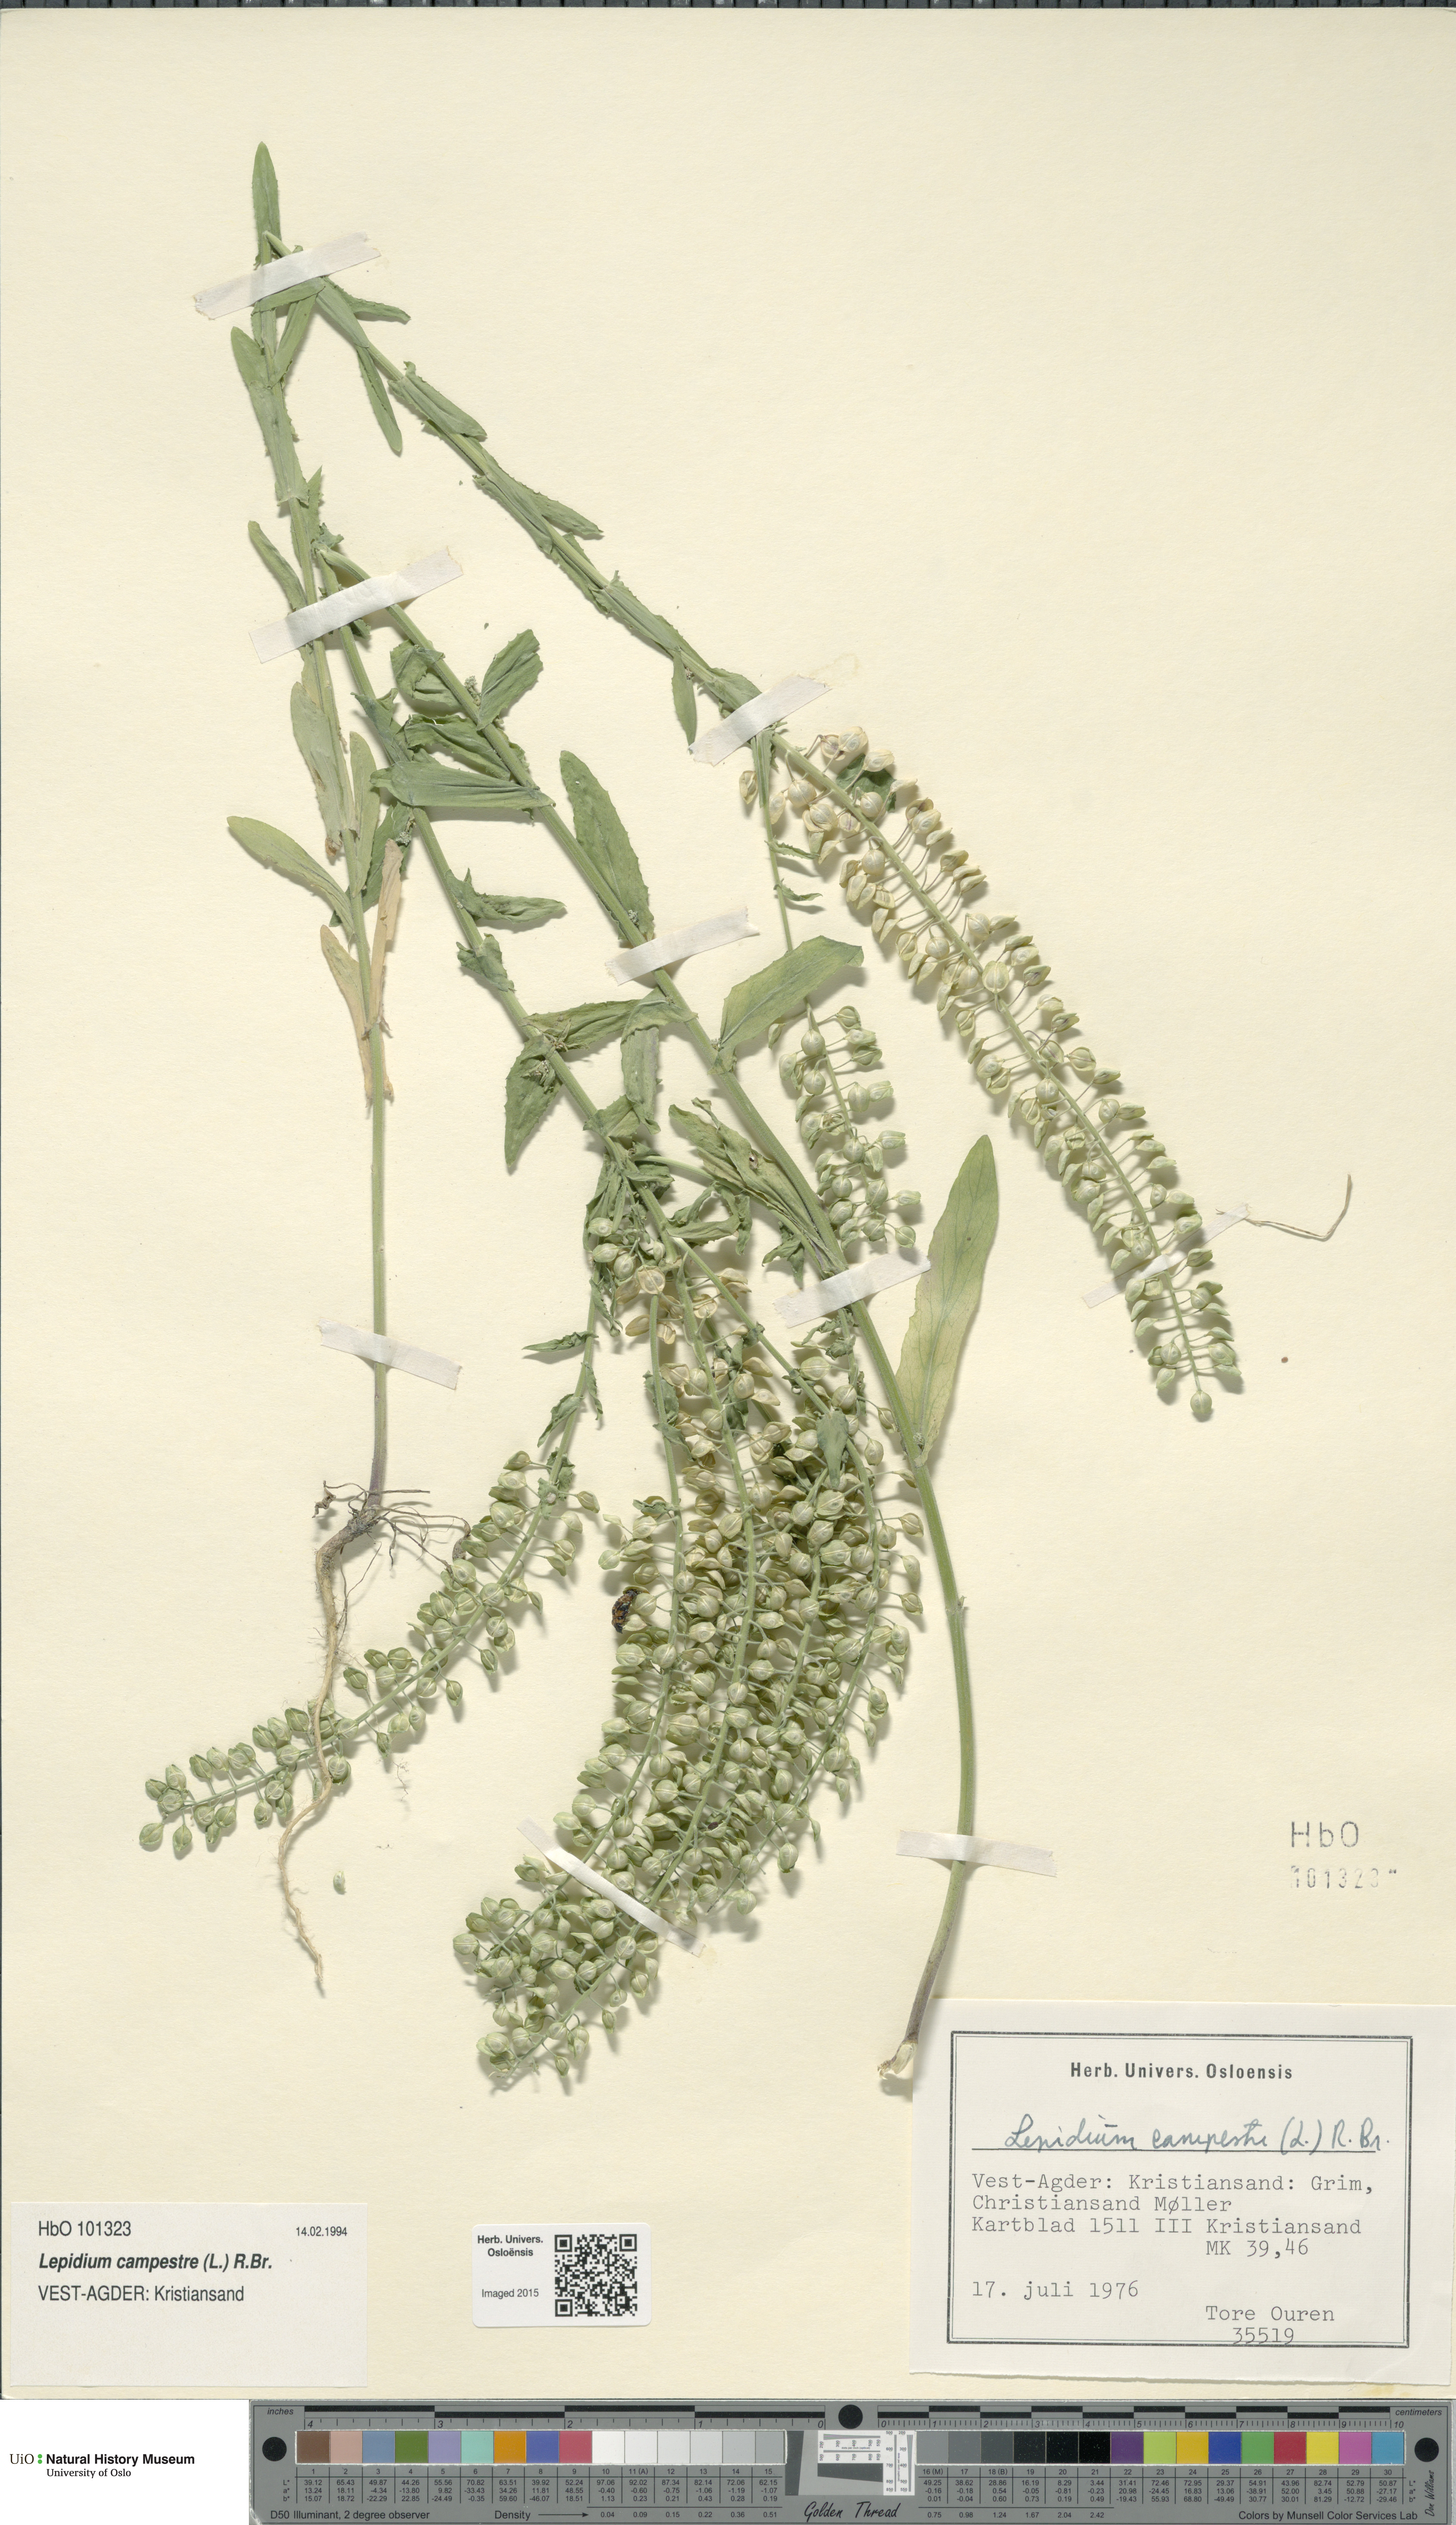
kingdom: Plantae
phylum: Tracheophyta
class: Magnoliopsida
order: Brassicales
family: Brassicaceae
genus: Lepidium
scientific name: Lepidium campestre
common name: Field pepperwort
